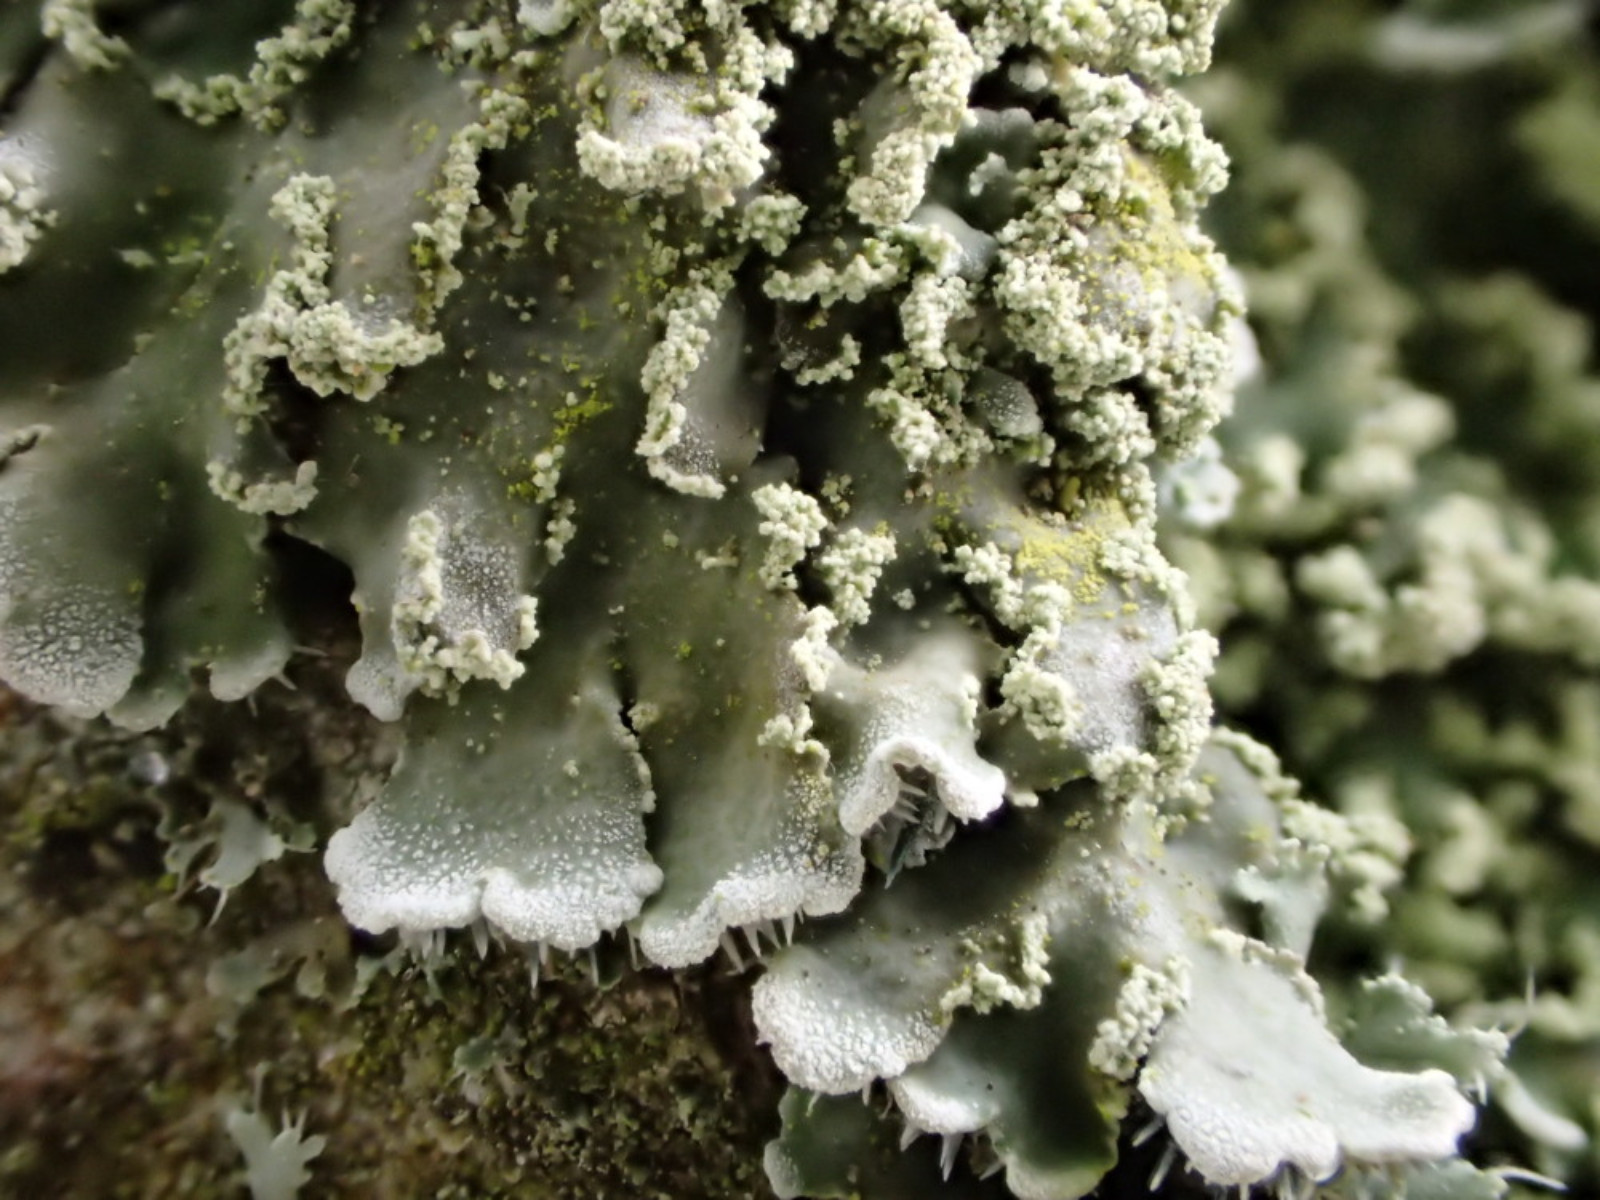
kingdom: Fungi
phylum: Ascomycota
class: Lecanoromycetes
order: Caliciales
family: Physciaceae
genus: Physconia
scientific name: Physconia perisidiosa
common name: liden dugrosetlav
